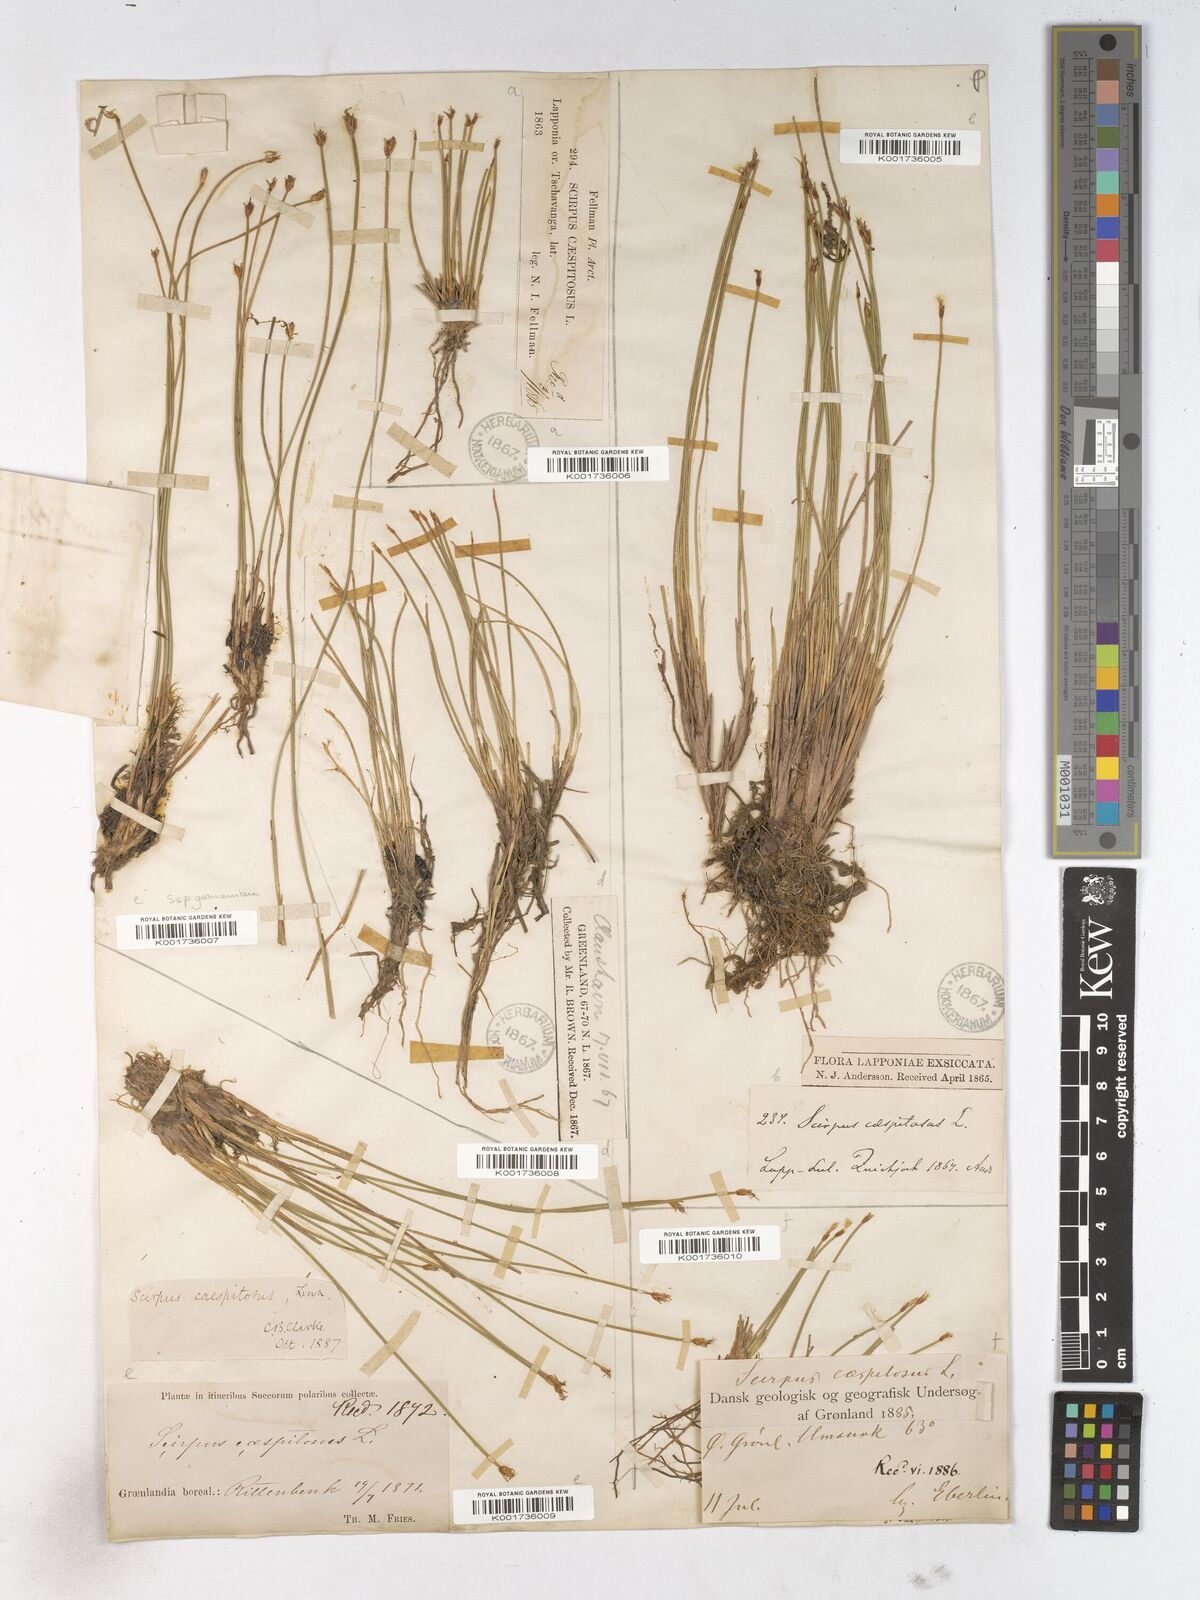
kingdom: Plantae
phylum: Tracheophyta
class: Liliopsida
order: Poales
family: Cyperaceae
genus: Trichophorum
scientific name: Trichophorum cespitosum
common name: Cespitose bulrush
